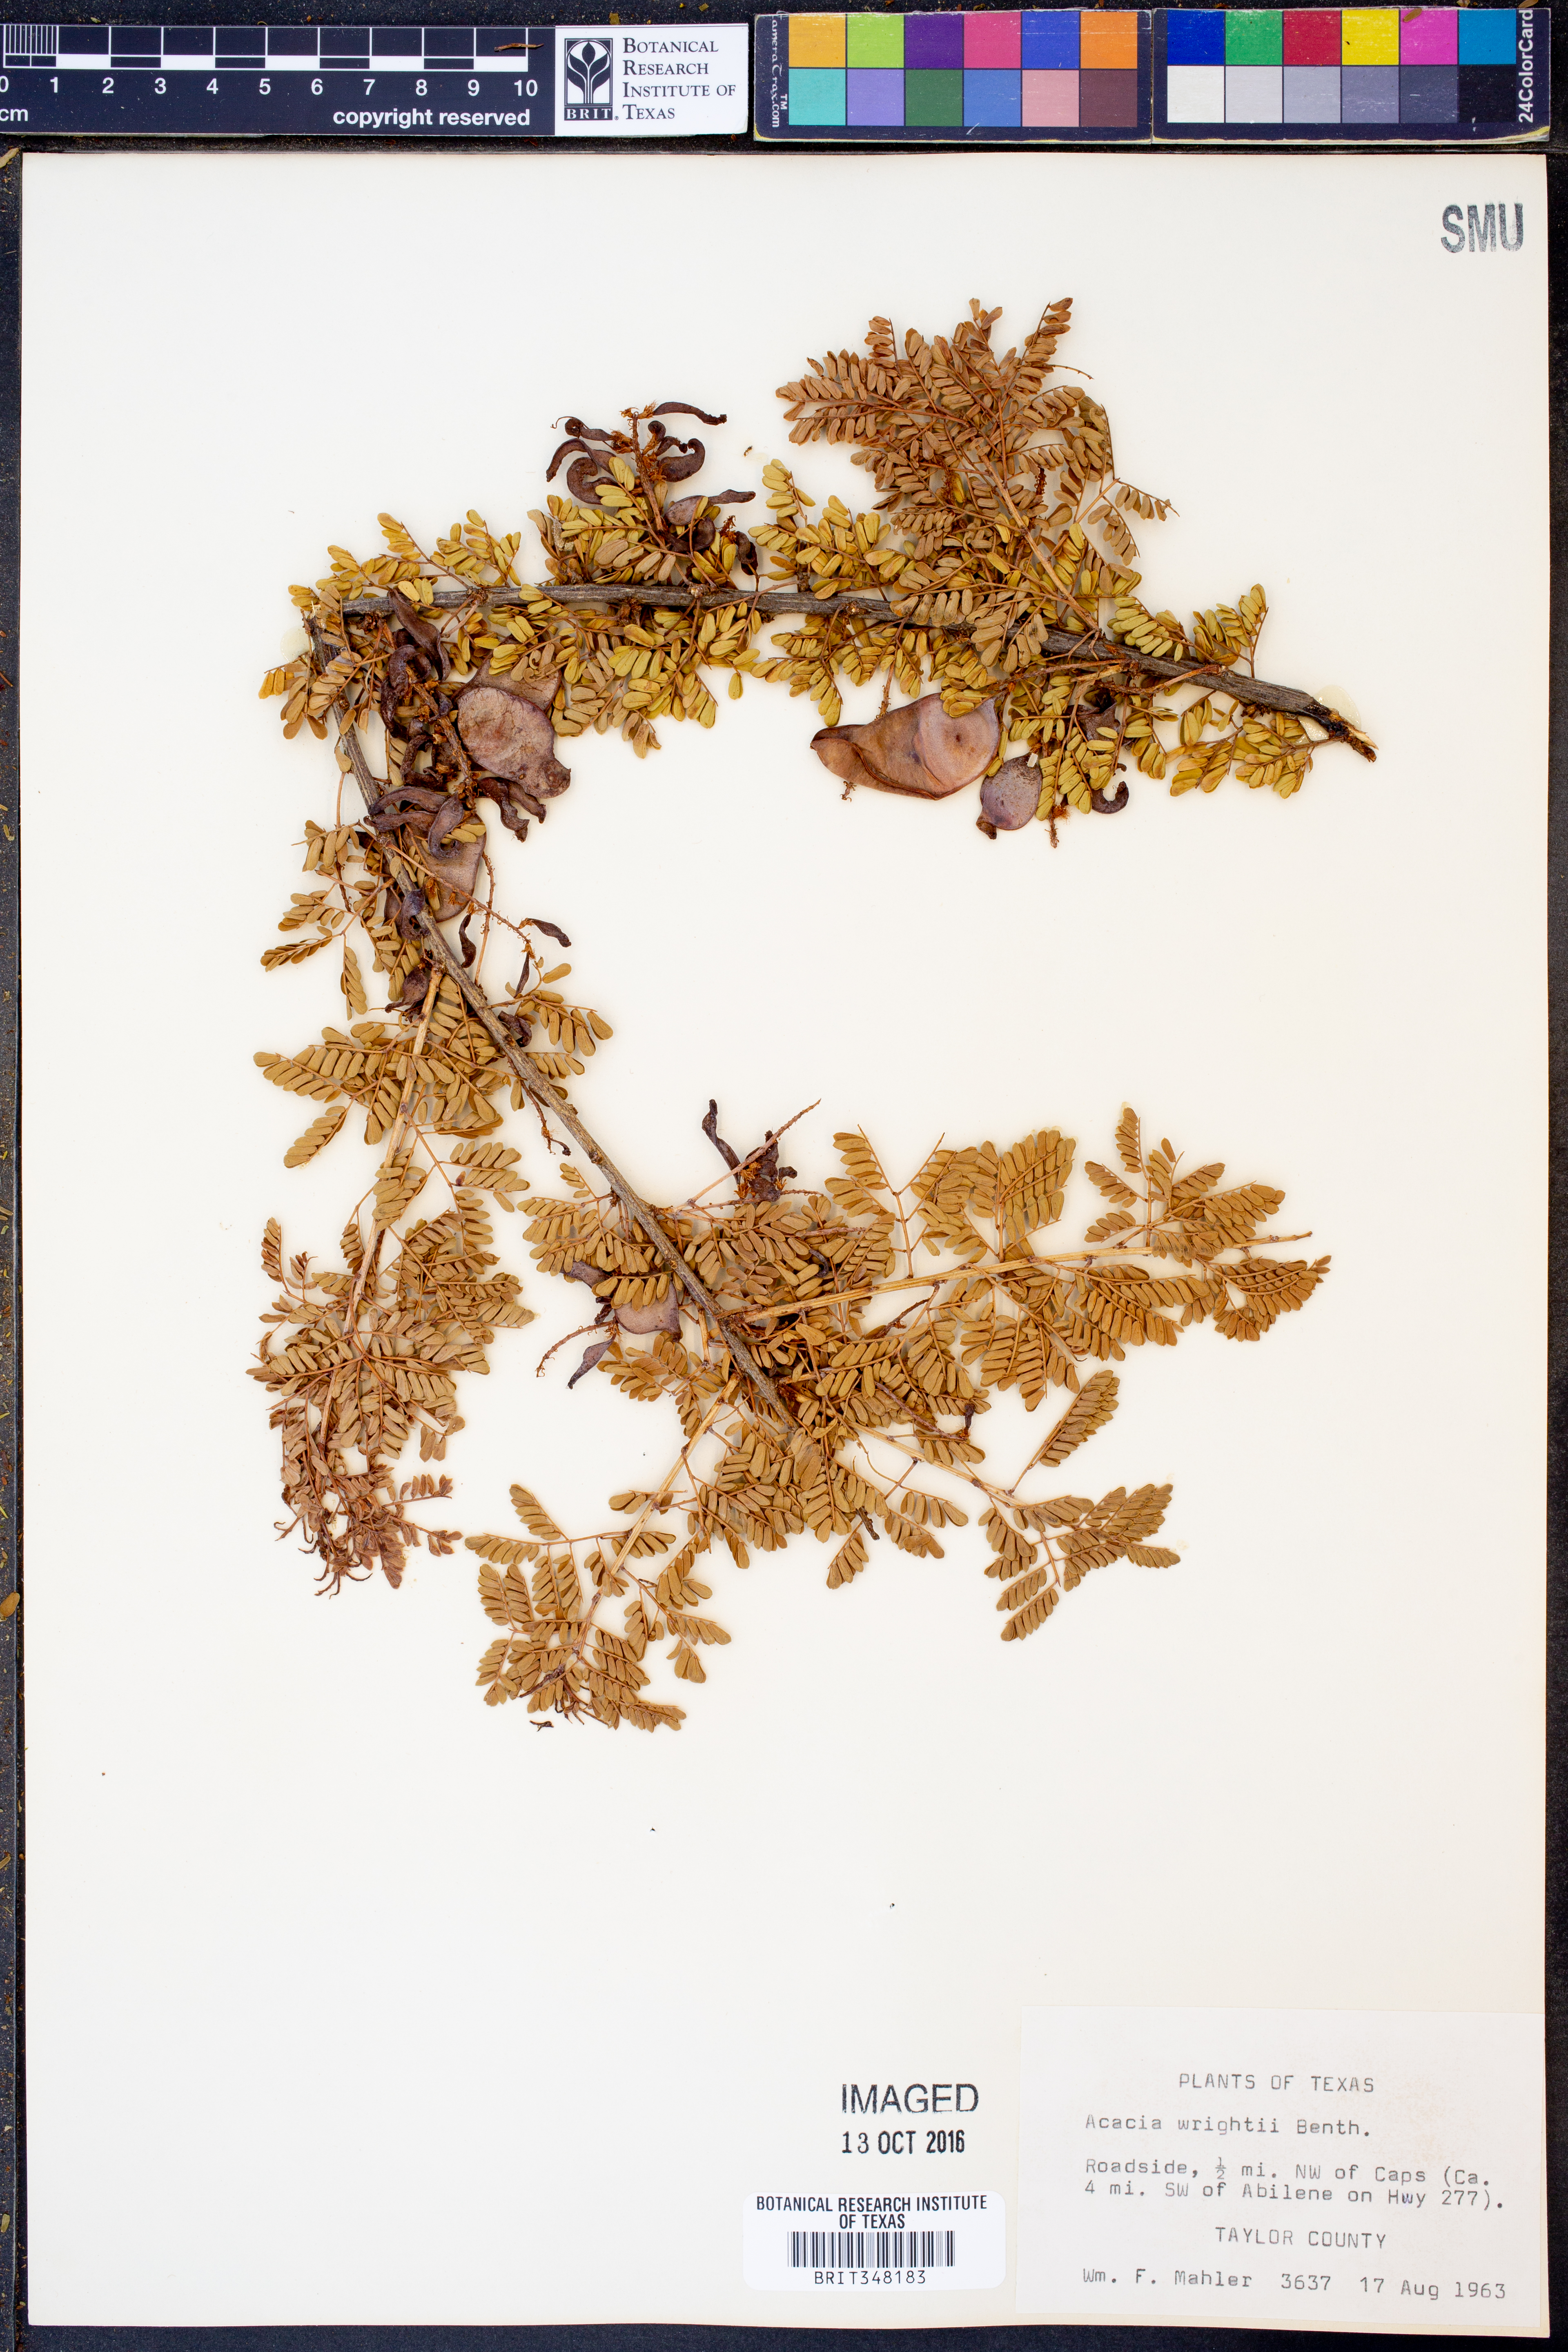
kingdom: Plantae
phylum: Tracheophyta
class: Magnoliopsida
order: Fabales
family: Fabaceae
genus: Senegalia
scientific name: Senegalia wrightii
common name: Texas cat's-claw
